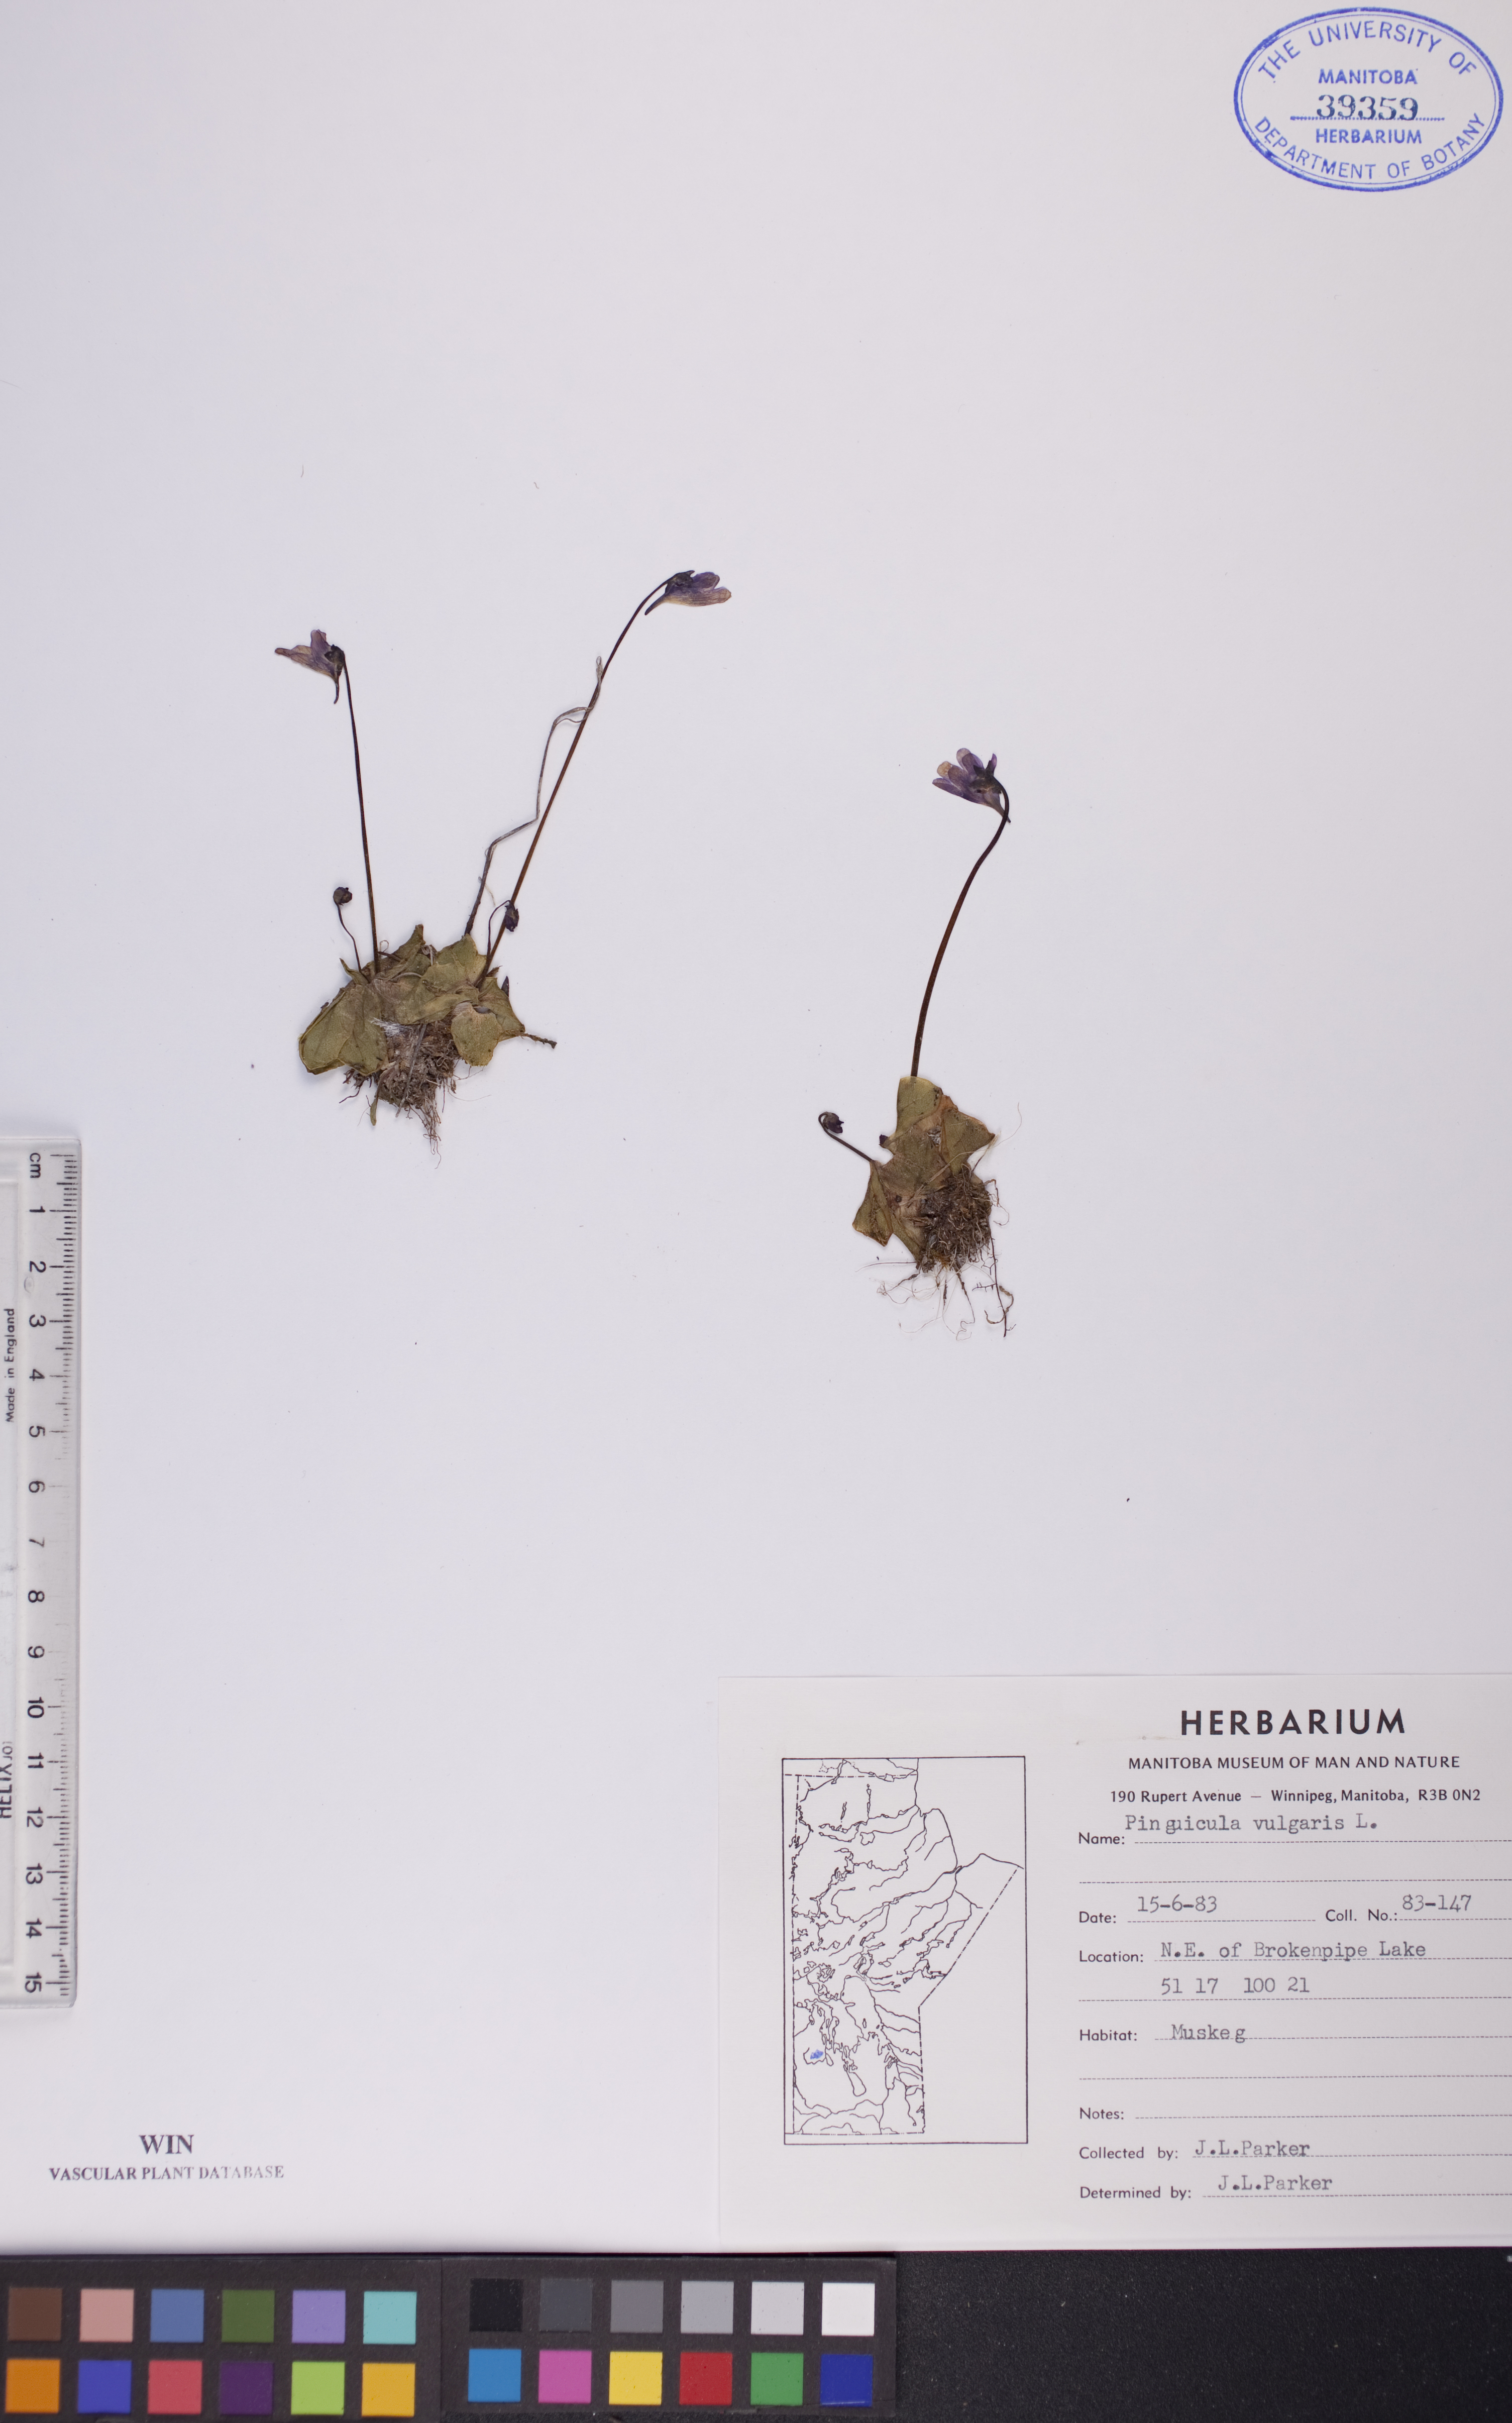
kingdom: Plantae
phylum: Tracheophyta
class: Magnoliopsida
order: Lamiales
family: Lentibulariaceae
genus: Pinguicula
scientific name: Pinguicula vulgaris
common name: Common butterwort
